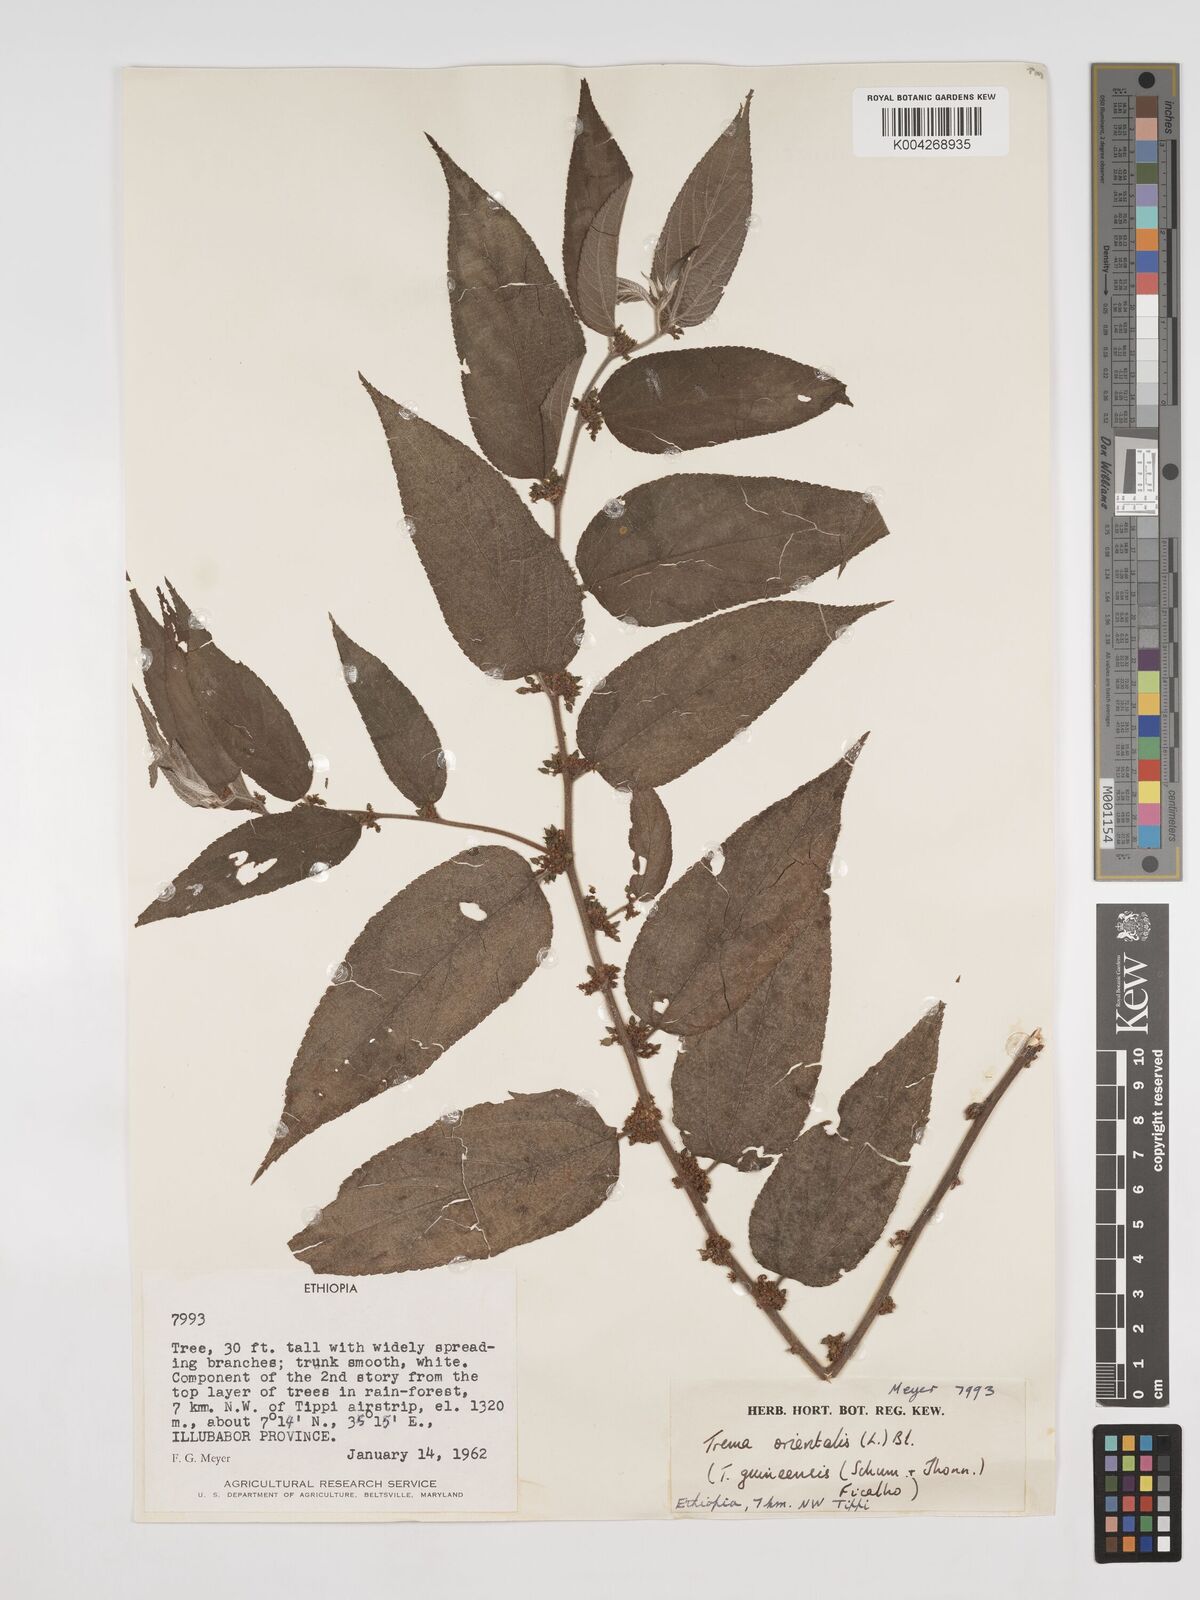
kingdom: Plantae
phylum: Tracheophyta
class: Magnoliopsida
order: Rosales
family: Cannabaceae
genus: Trema
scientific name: Trema orientale
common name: Indian charcoal tree
